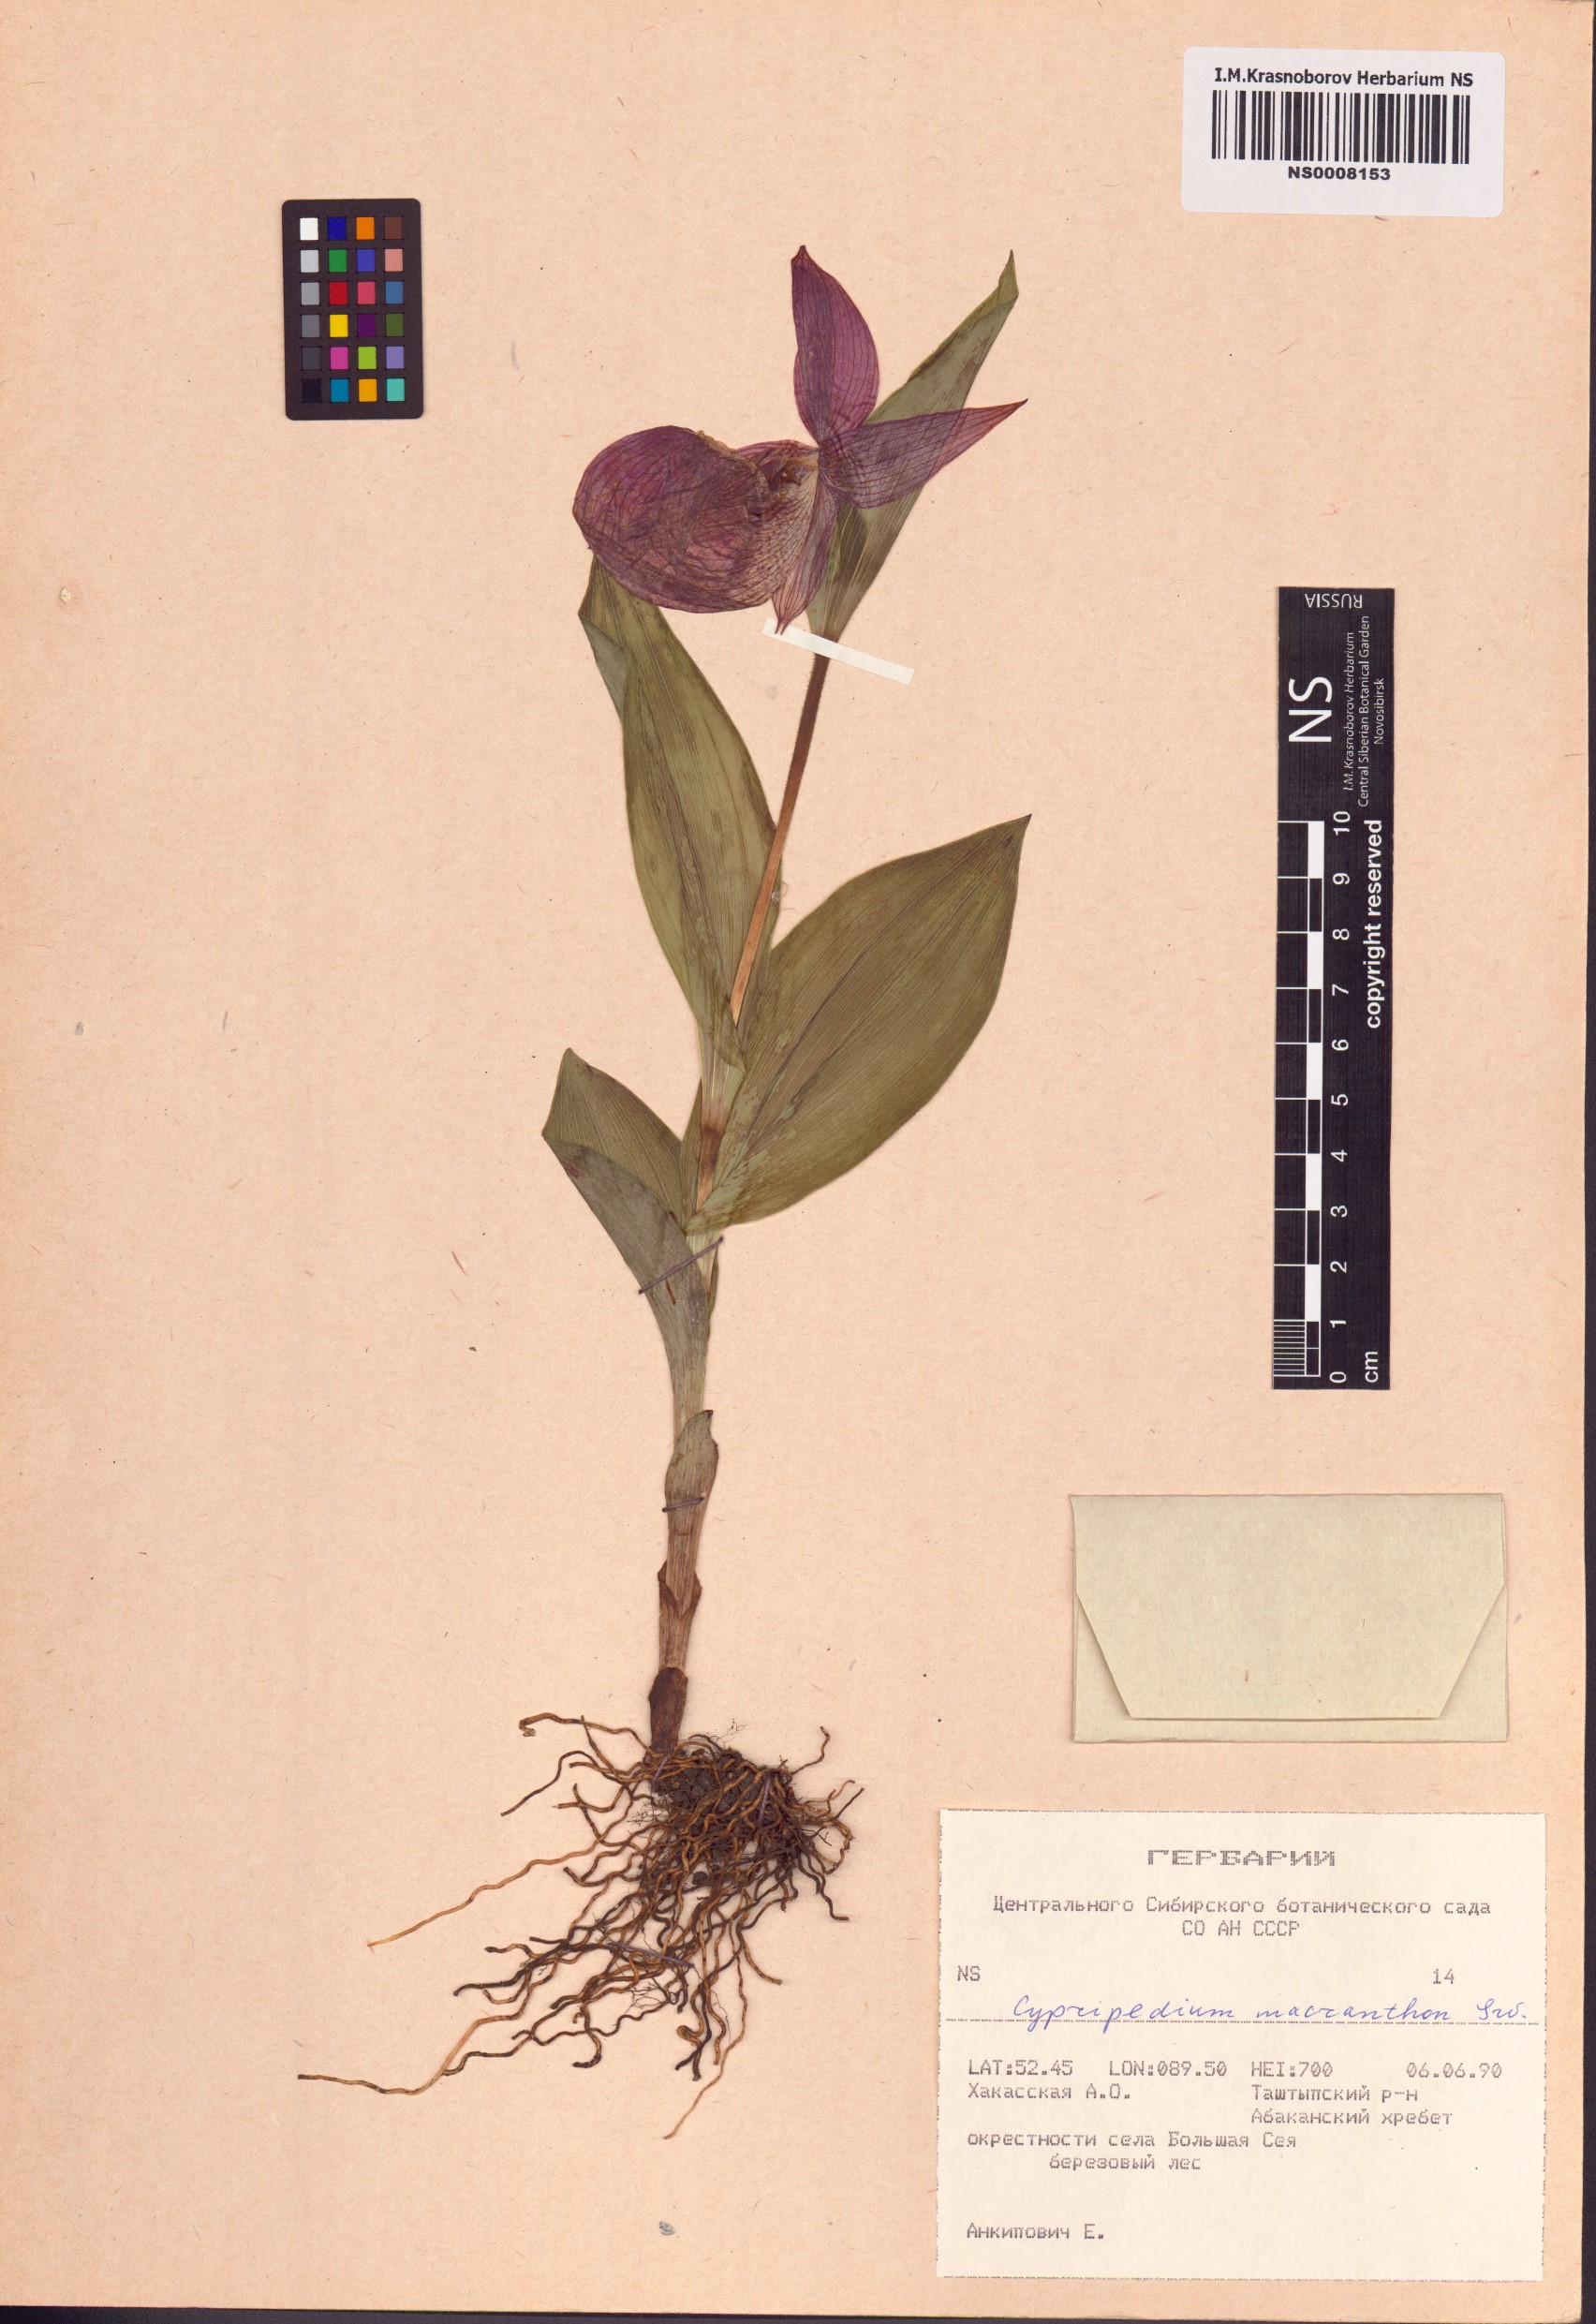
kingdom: Plantae
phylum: Tracheophyta
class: Liliopsida
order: Asparagales
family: Orchidaceae
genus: Cypripedium
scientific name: Cypripedium macranthos
